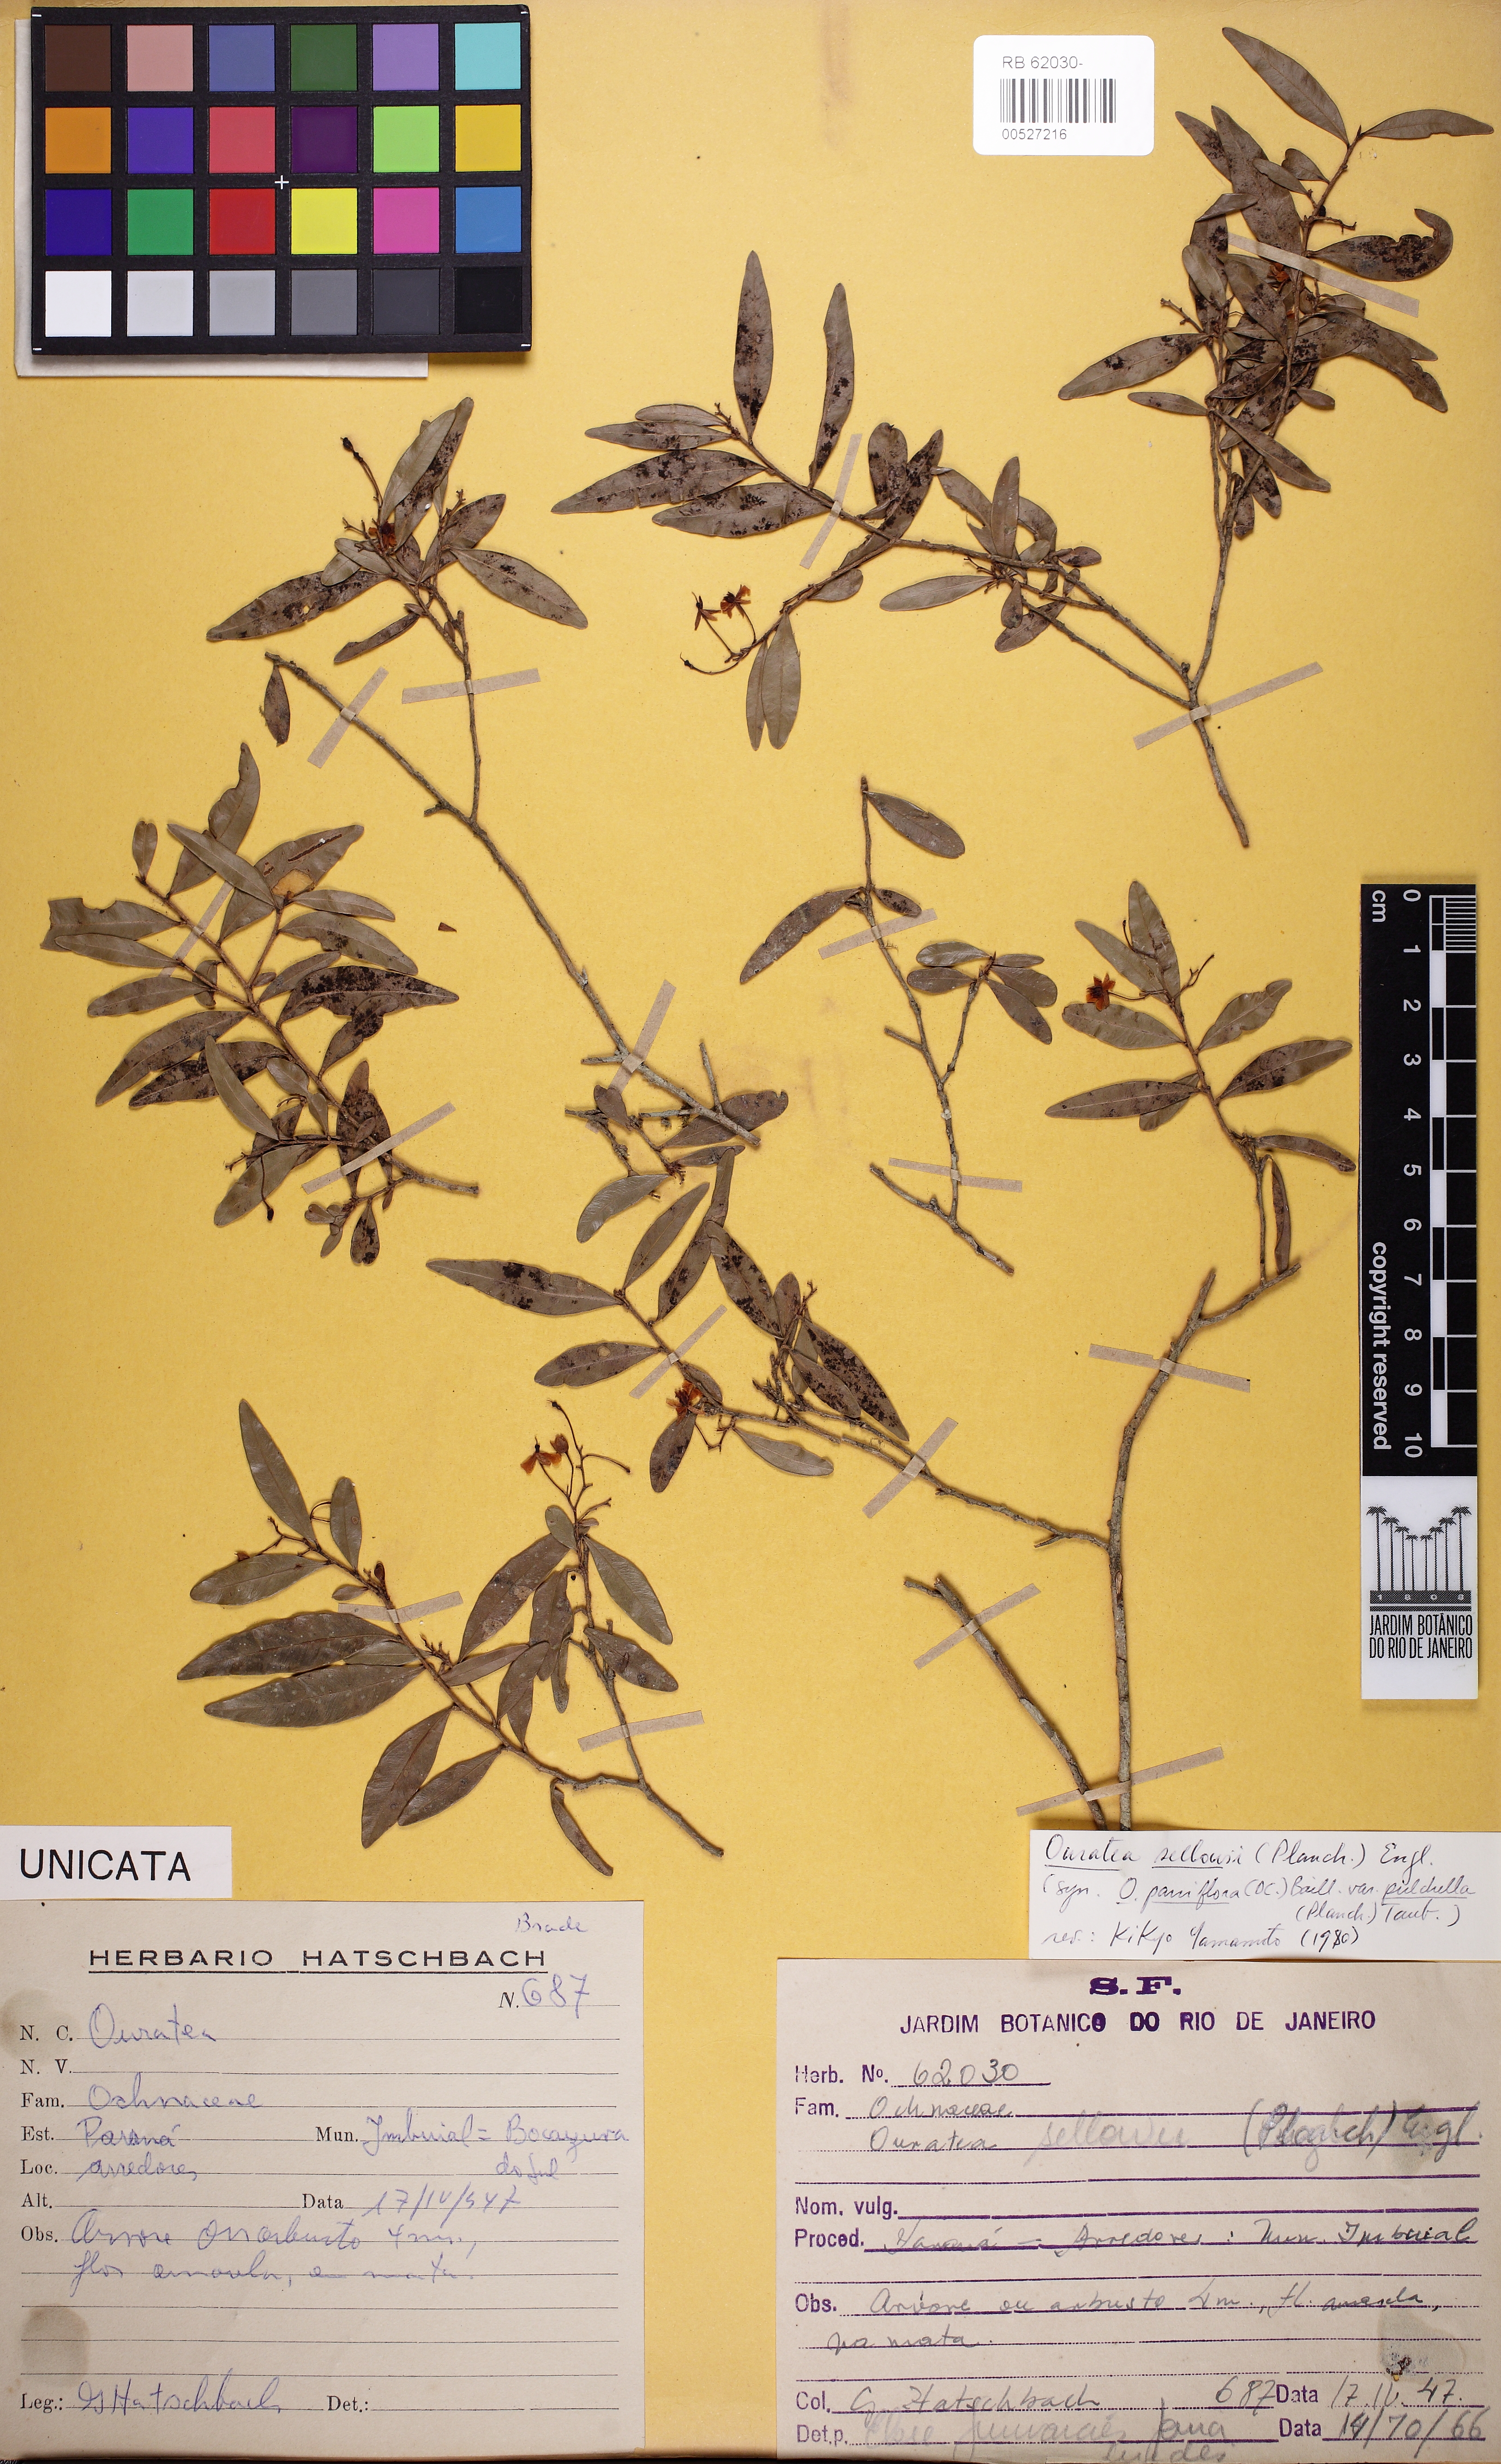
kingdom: Plantae
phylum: Tracheophyta
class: Magnoliopsida
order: Malpighiales
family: Ochnaceae
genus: Ouratea
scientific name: Ouratea sellowii
